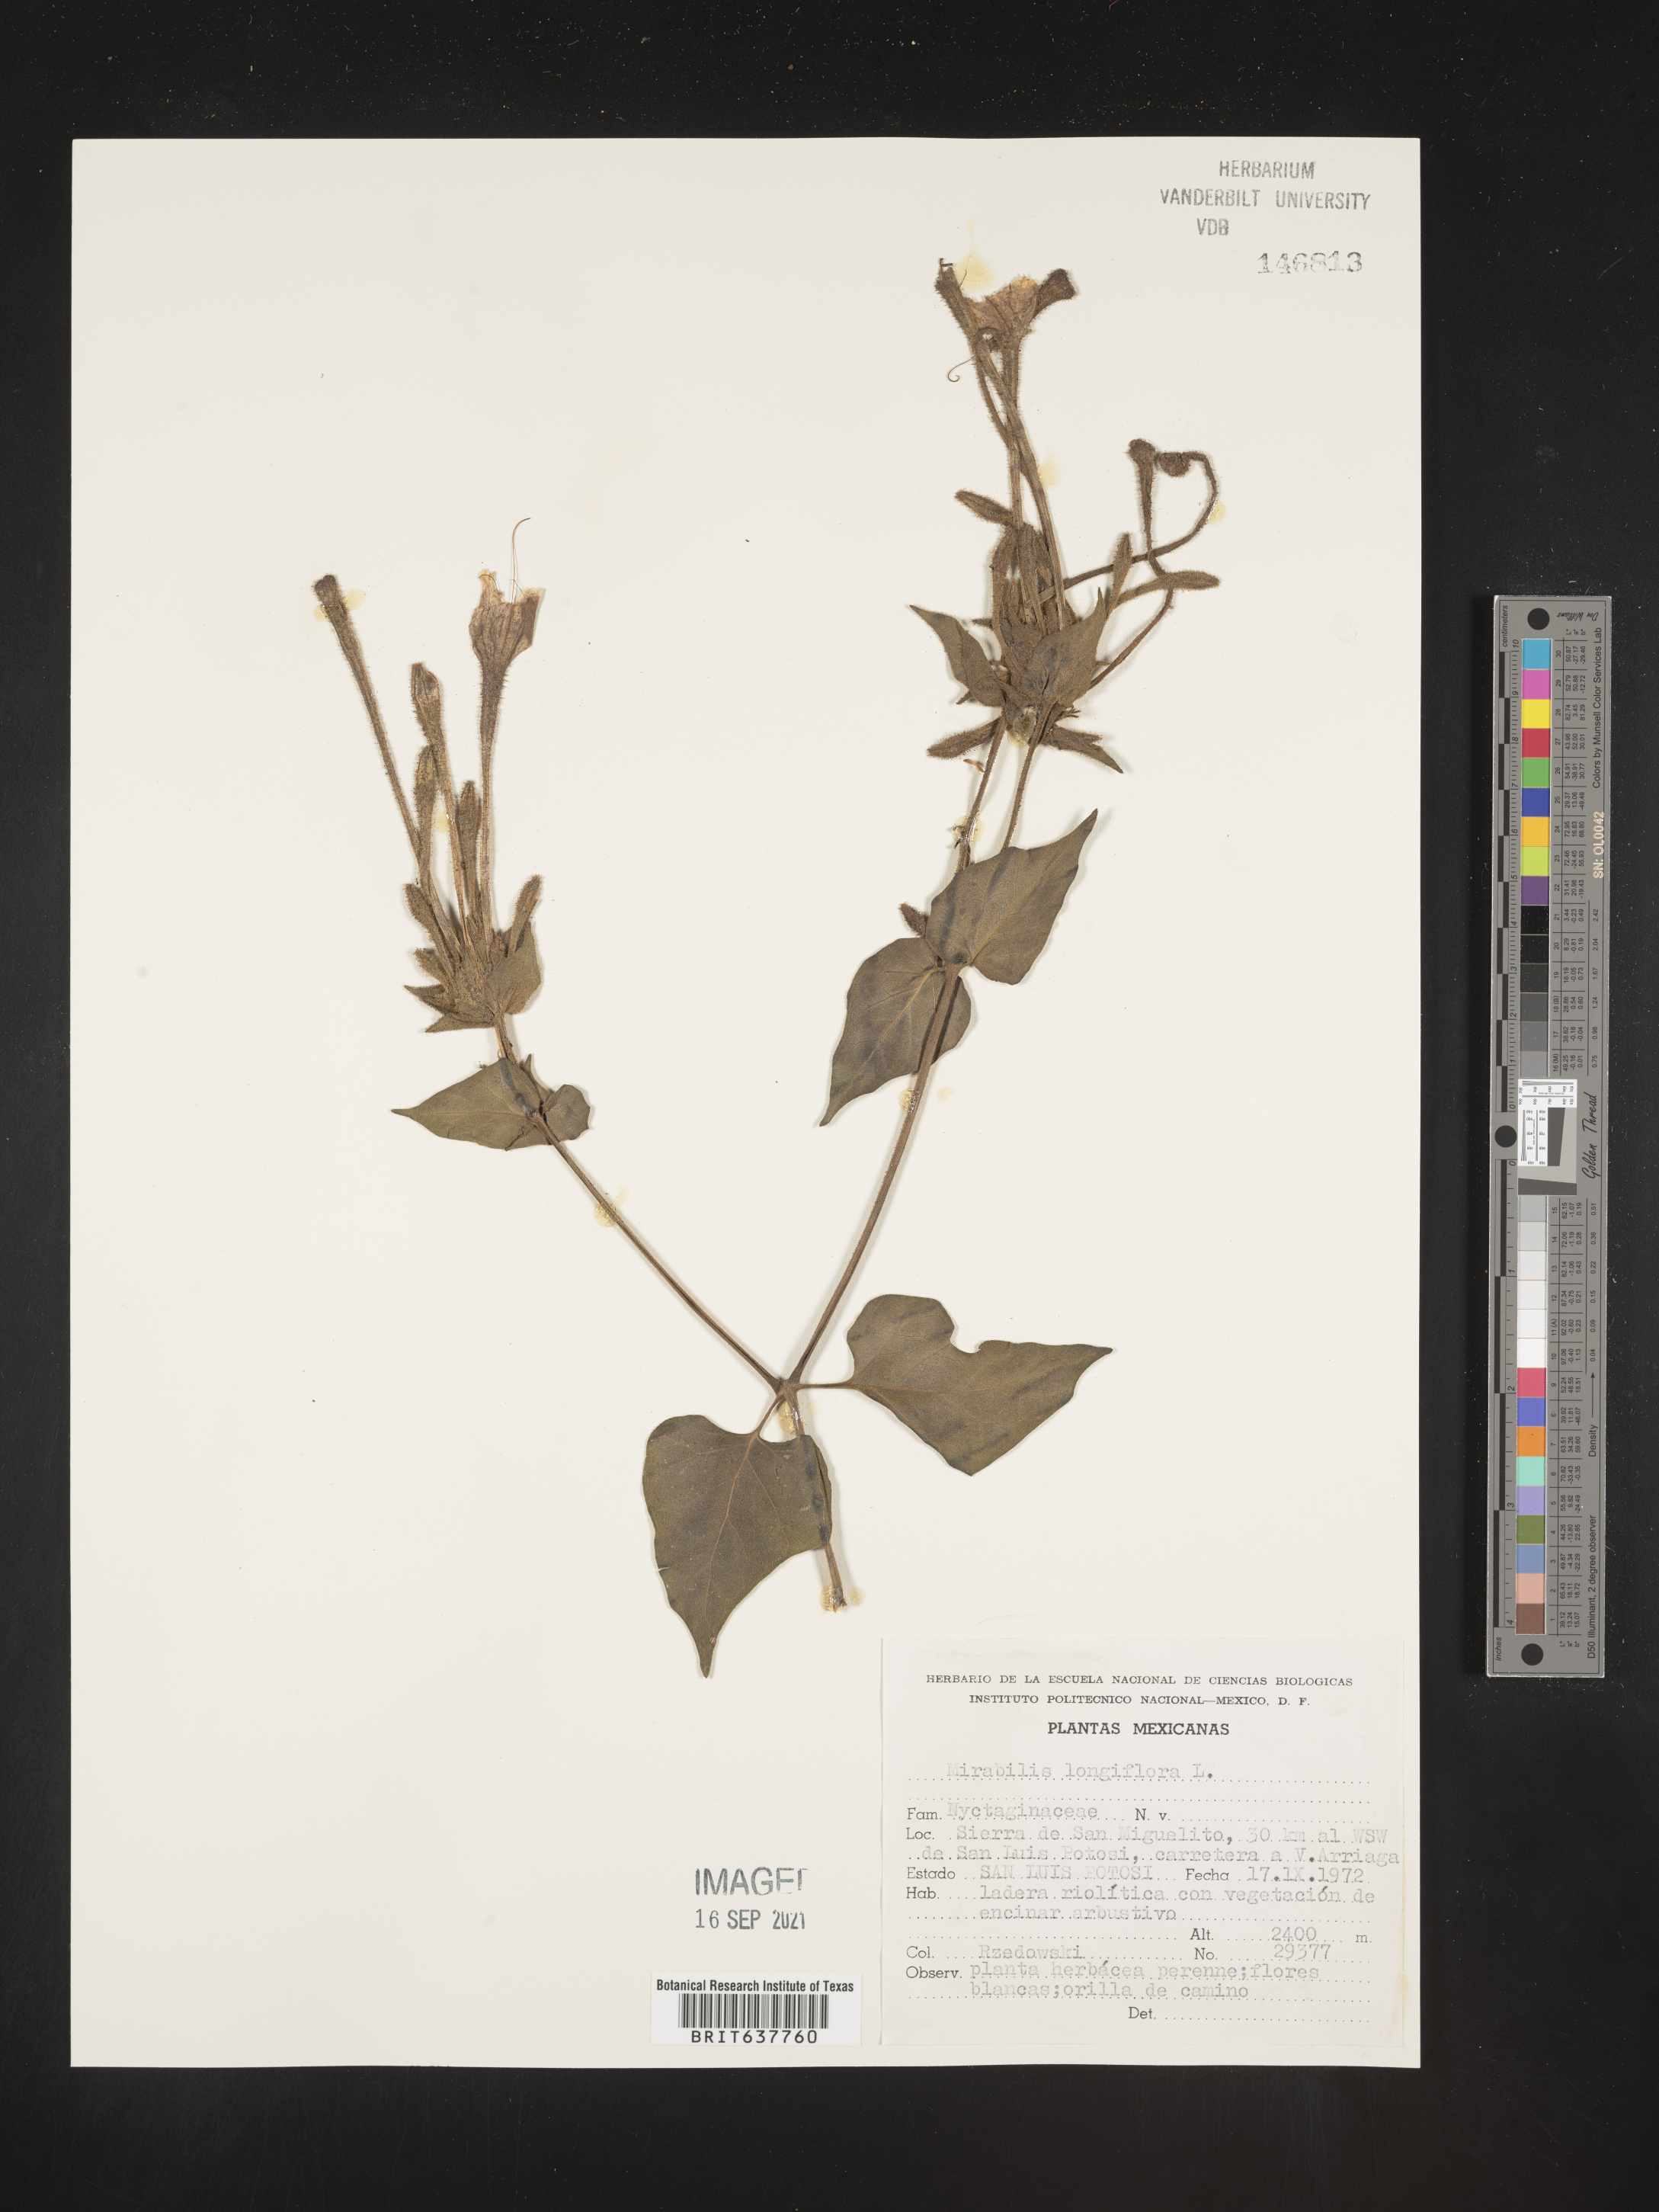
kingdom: Plantae
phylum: Tracheophyta
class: Magnoliopsida
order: Caryophyllales
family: Nyctaginaceae
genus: Mirabilis
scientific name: Mirabilis
